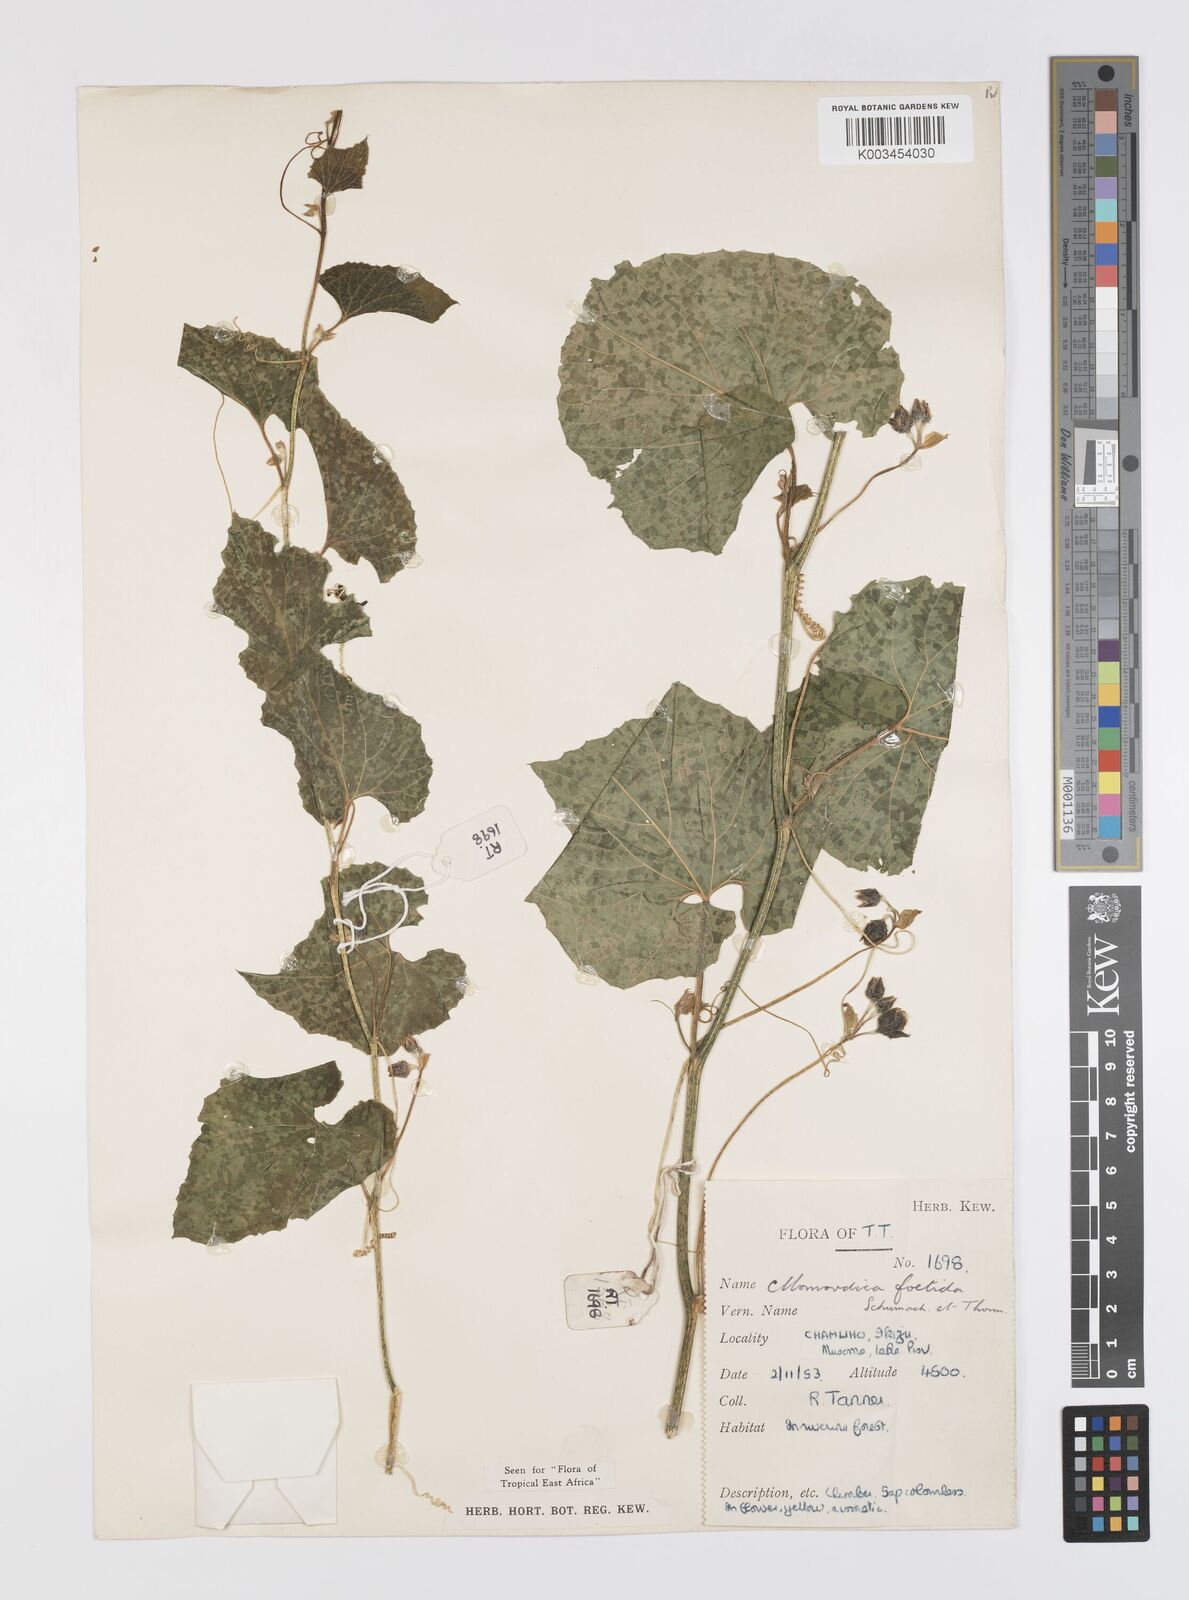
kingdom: Plantae
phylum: Tracheophyta
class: Magnoliopsida
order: Cucurbitales
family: Cucurbitaceae
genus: Momordica
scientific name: Momordica foetida
